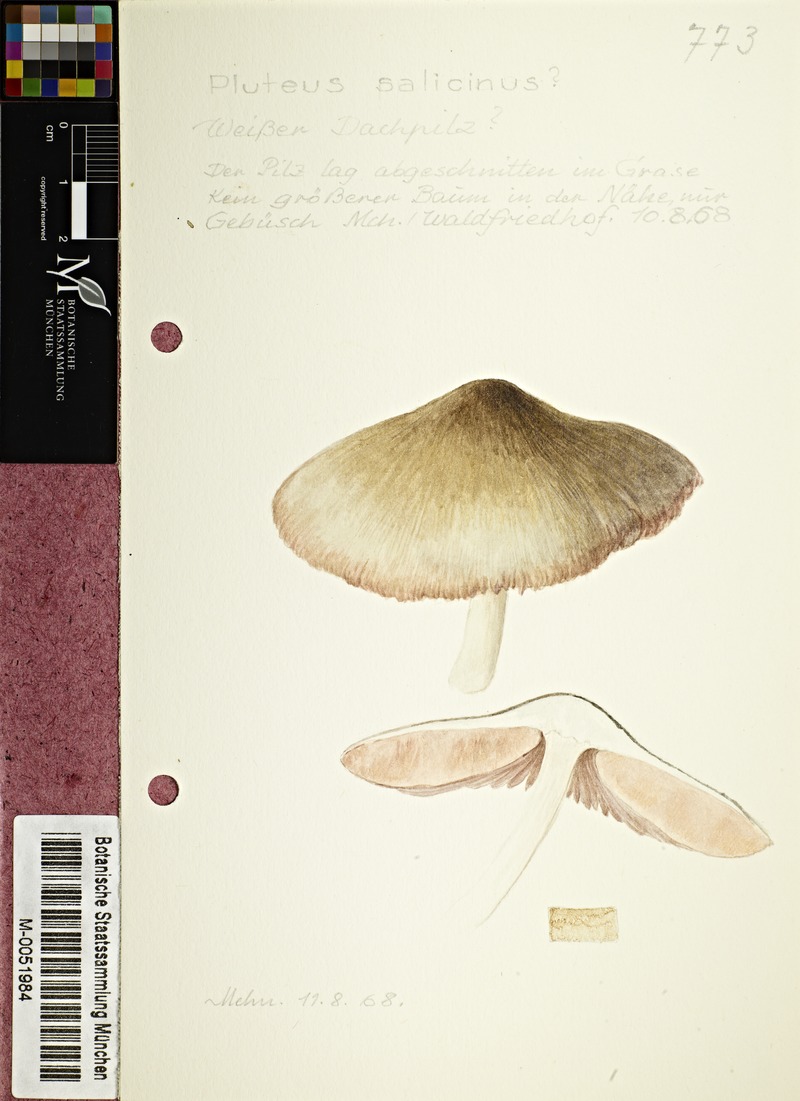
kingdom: Fungi
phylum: Basidiomycota
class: Agaricomycetes
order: Agaricales
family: Pluteaceae
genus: Pluteus
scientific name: Pluteus salicinus
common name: Willow shield
